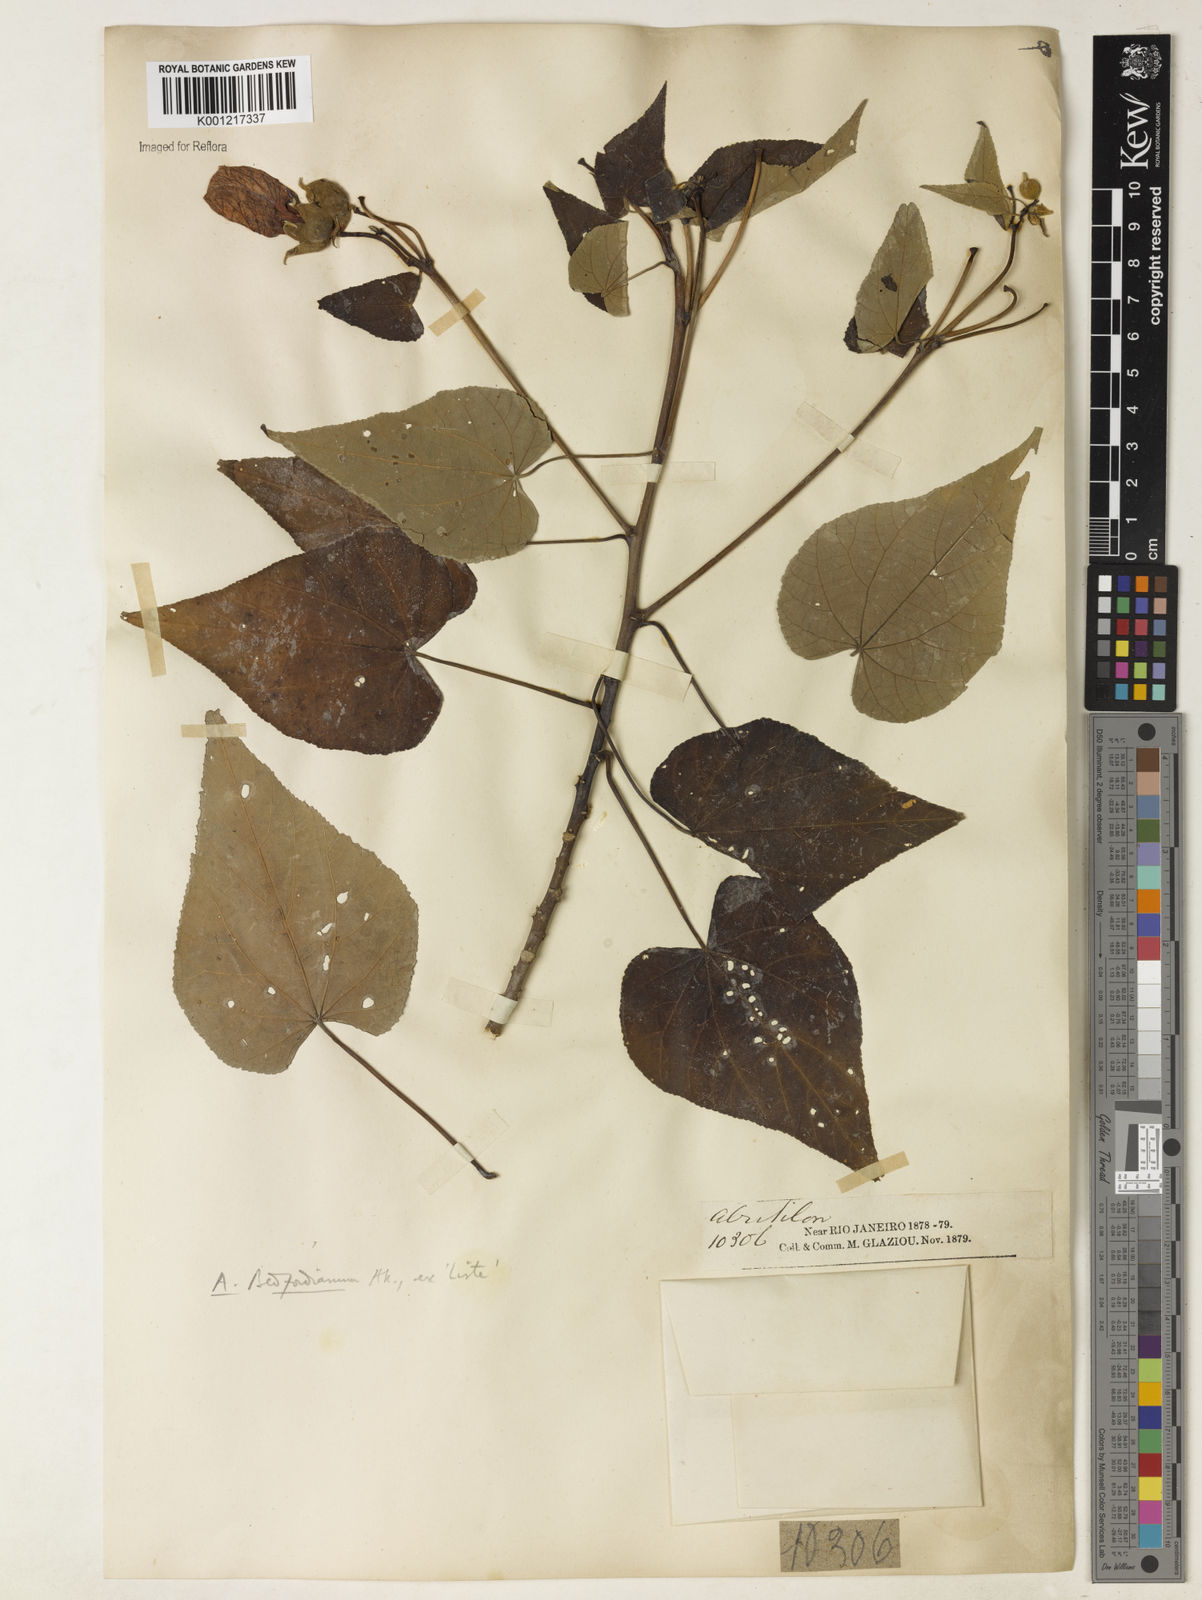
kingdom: Plantae
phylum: Tracheophyta
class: Magnoliopsida
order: Malvales
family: Malvaceae
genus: Callianthe
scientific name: Callianthe bedfordiana
